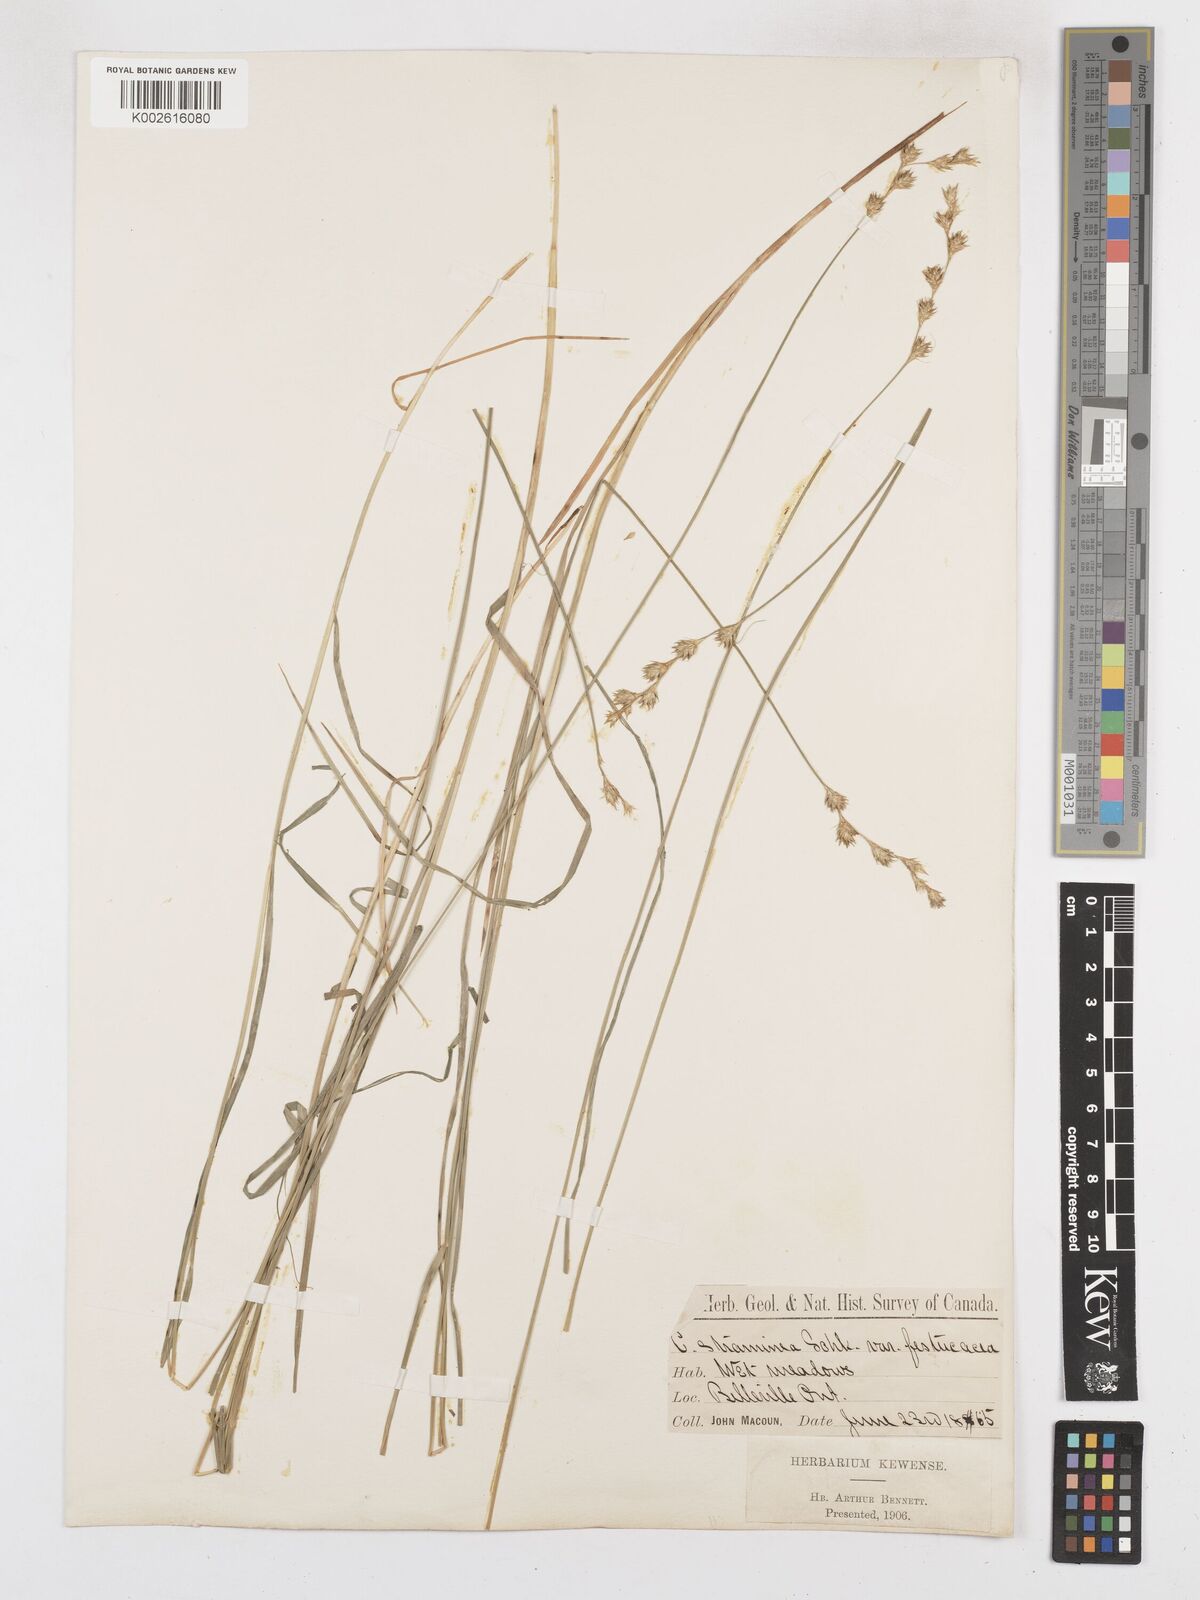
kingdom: Plantae
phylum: Tracheophyta
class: Liliopsida
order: Poales
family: Cyperaceae
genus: Carex
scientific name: Carex brevior
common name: Brevior sedge
